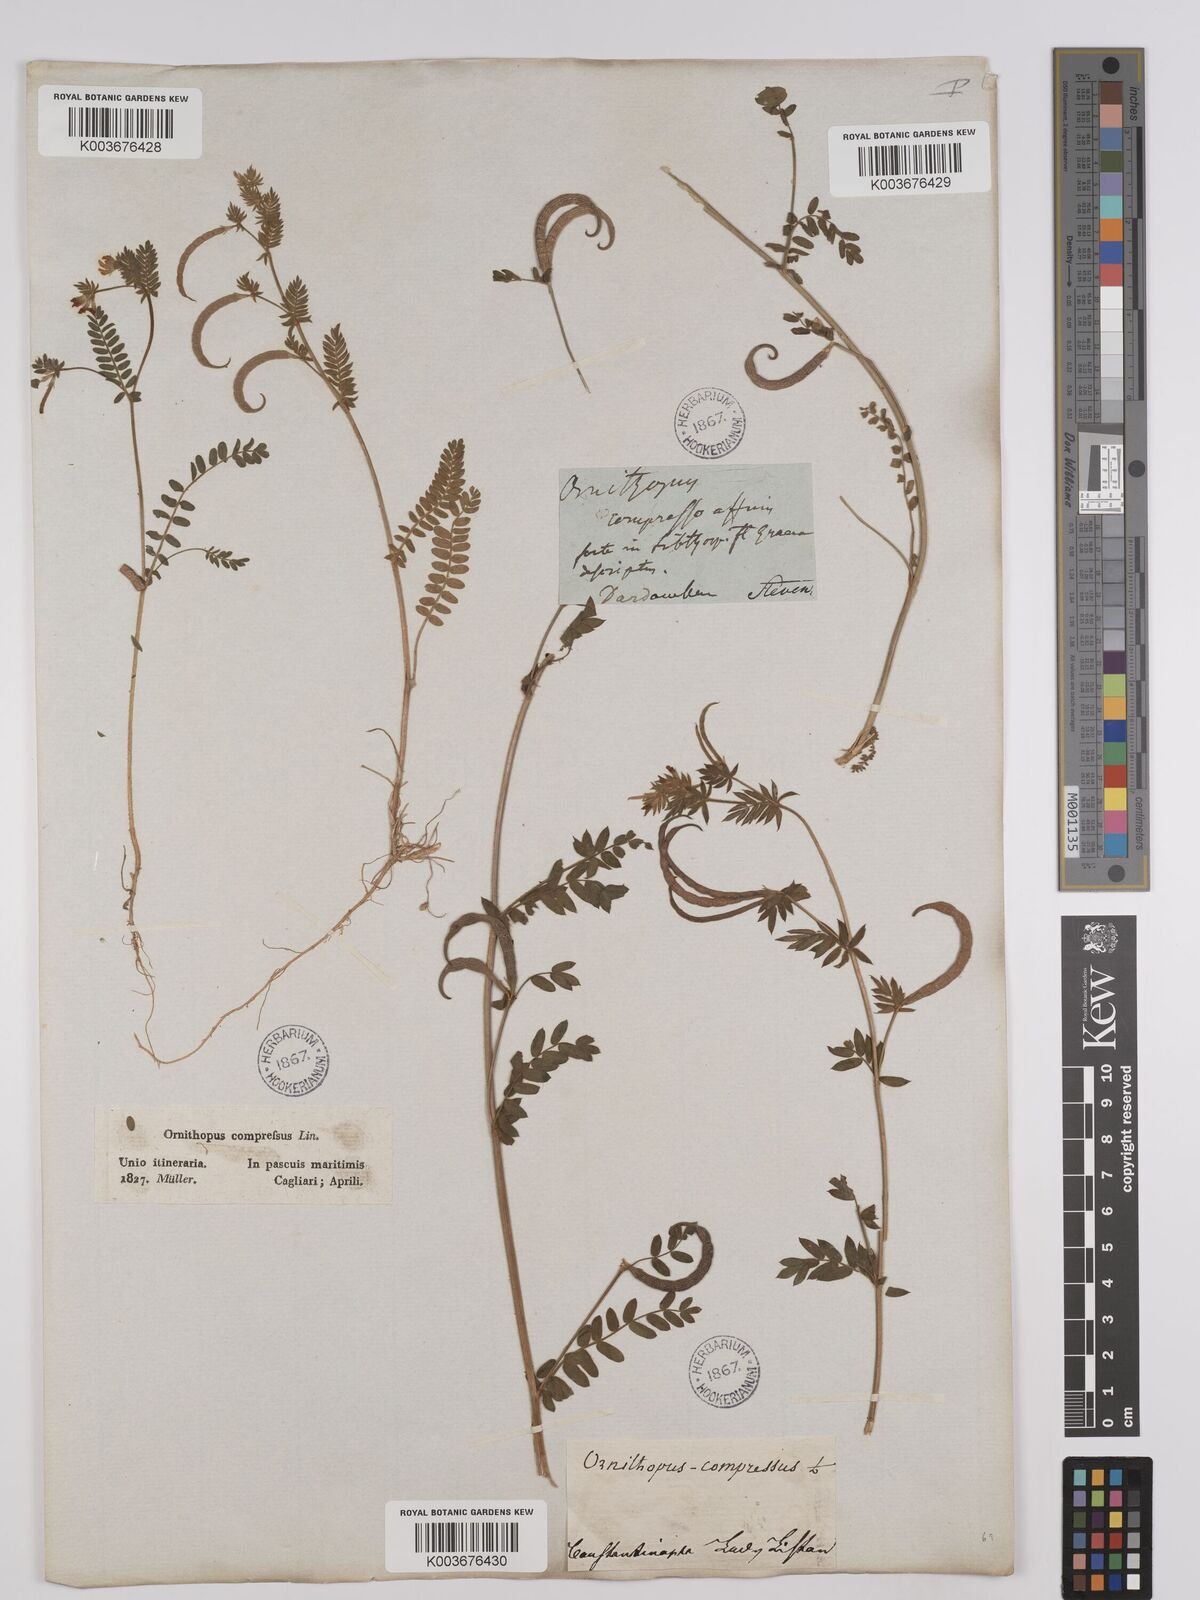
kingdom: Plantae
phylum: Tracheophyta
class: Magnoliopsida
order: Fabales
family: Fabaceae
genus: Ornithopus
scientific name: Ornithopus compressus
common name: Yellow serradella
